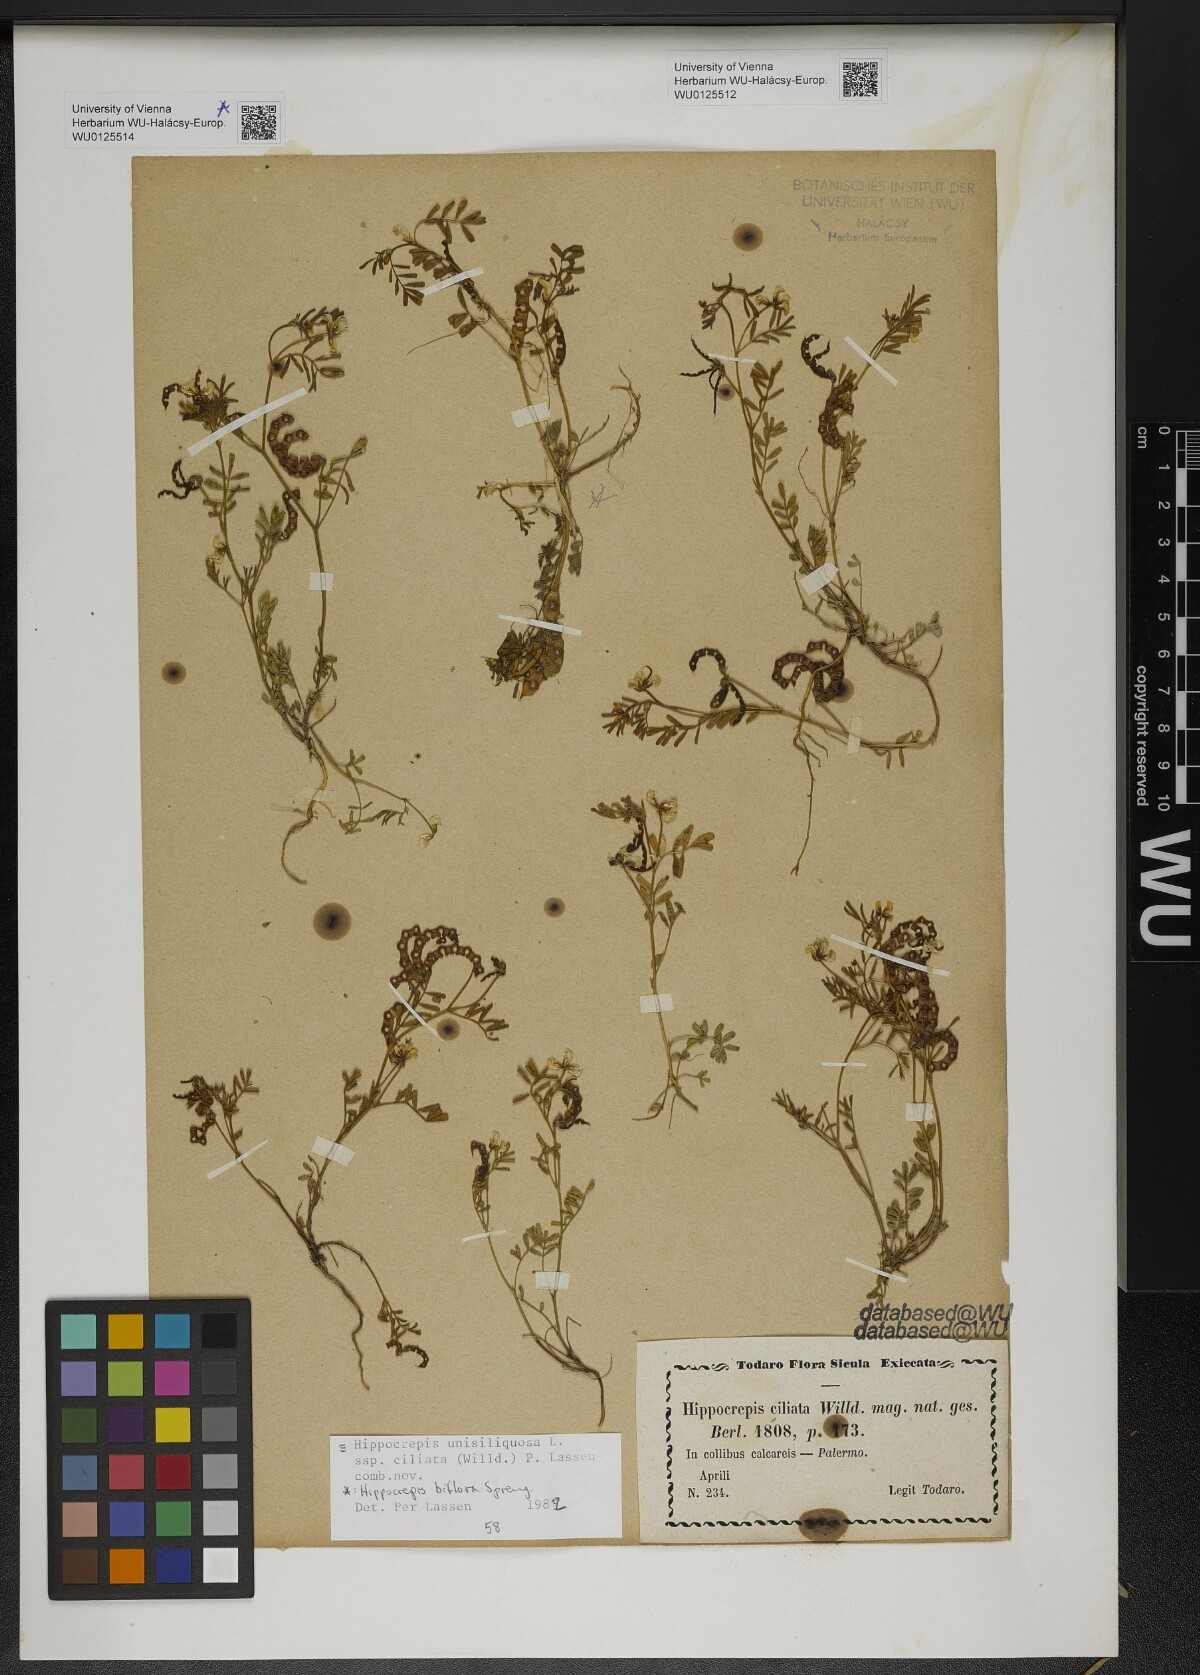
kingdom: Plantae
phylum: Tracheophyta
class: Magnoliopsida
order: Fabales
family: Fabaceae
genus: Hippocrepis
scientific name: Hippocrepis biflora
